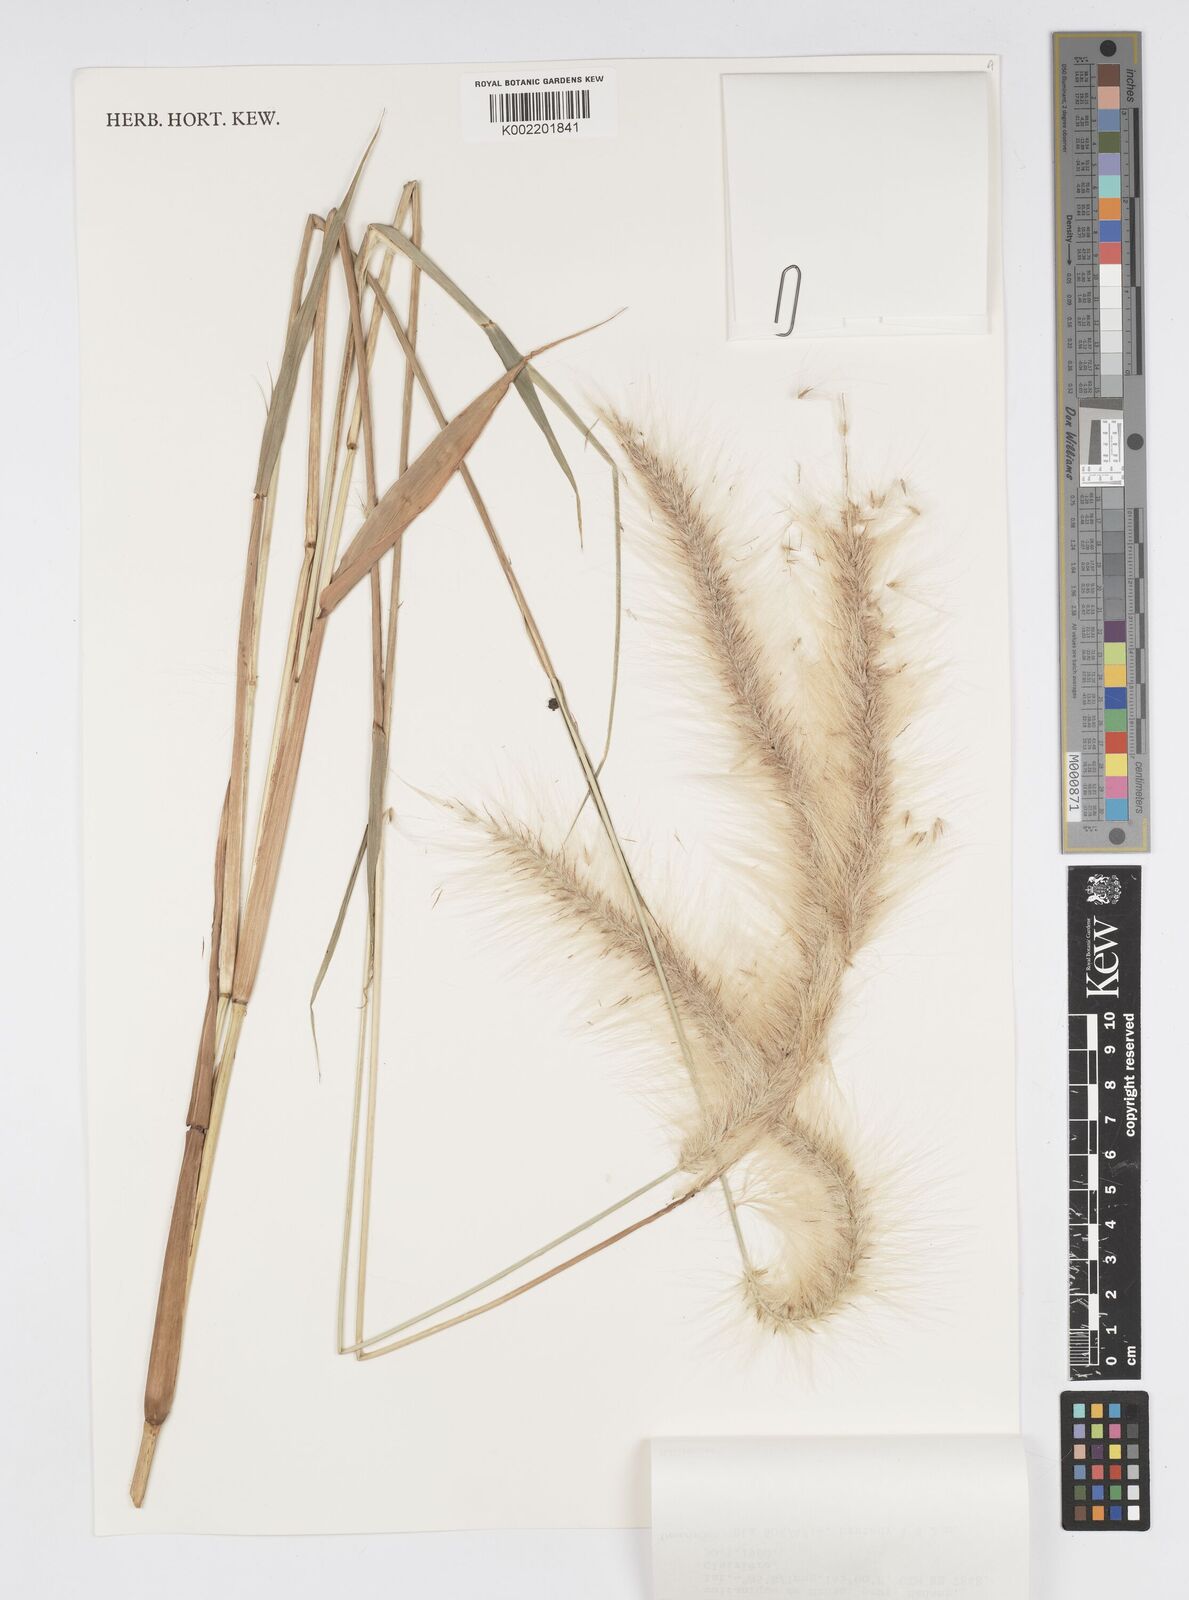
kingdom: Plantae
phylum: Tracheophyta
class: Liliopsida
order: Poales
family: Poaceae
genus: Cenchrus
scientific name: Cenchrus purpureus
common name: Elephant grass
